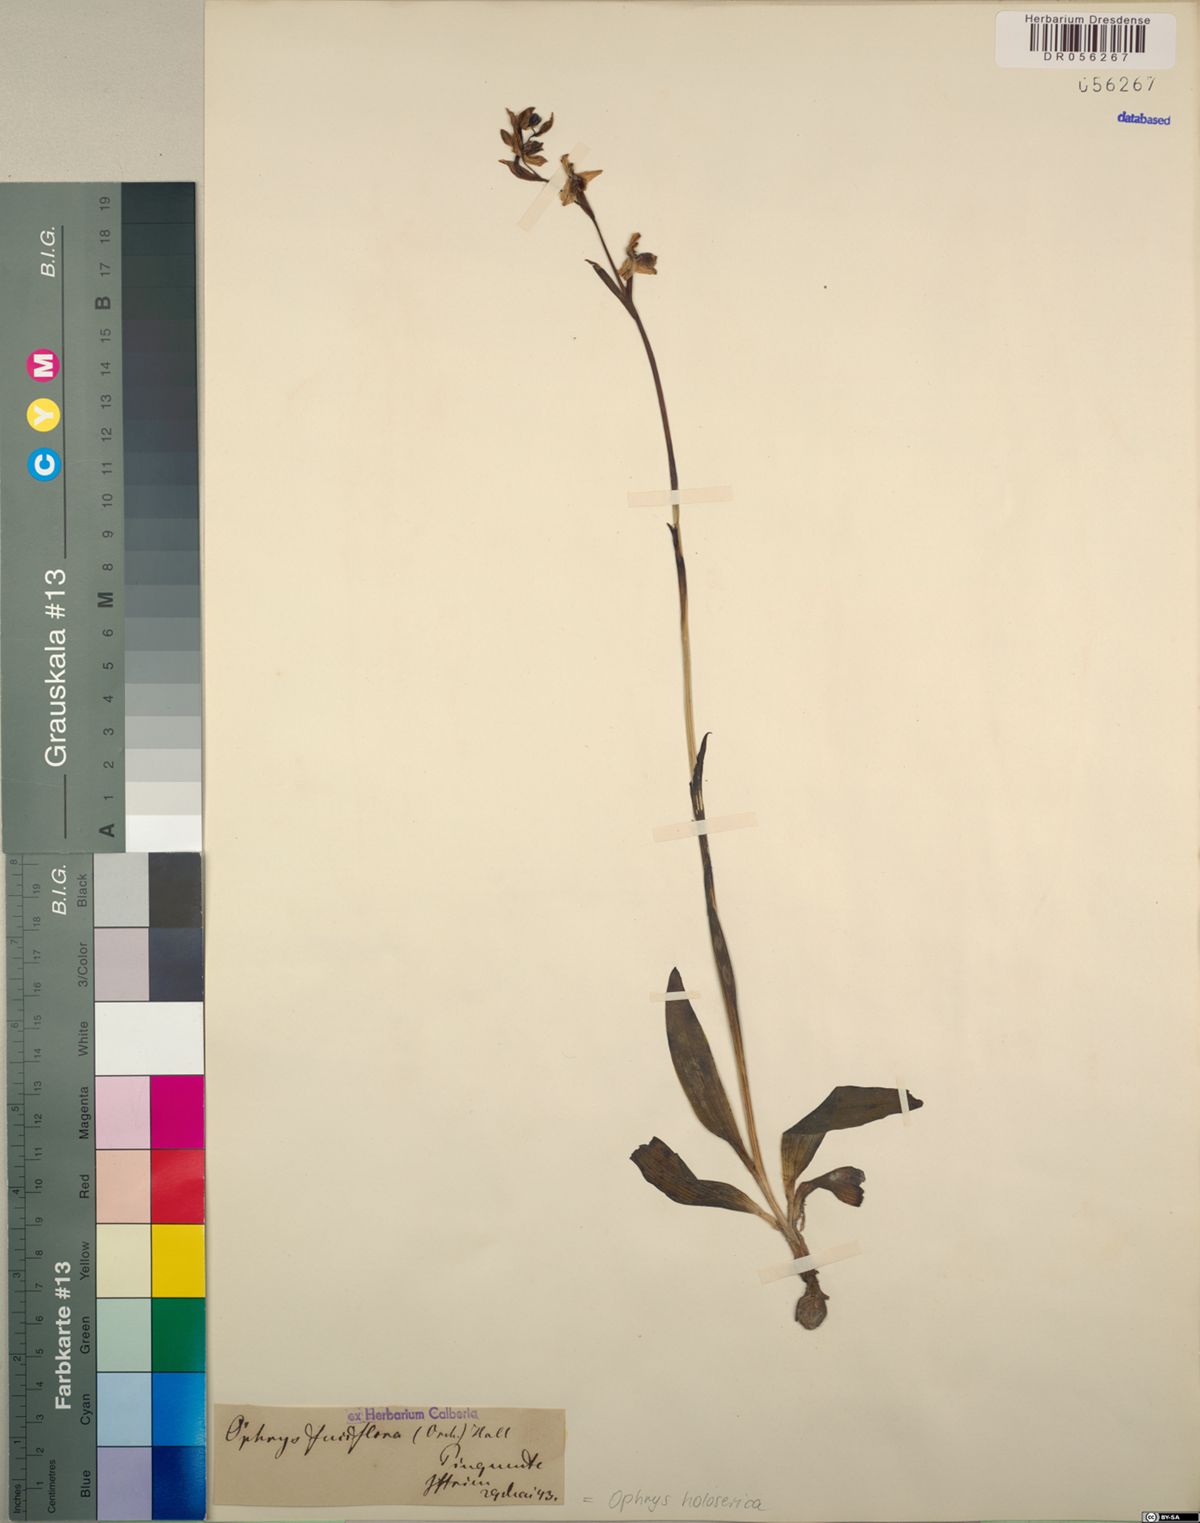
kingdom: Plantae
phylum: Tracheophyta
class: Liliopsida
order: Asparagales
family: Orchidaceae
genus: Ophrys
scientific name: Ophrys holosericea
